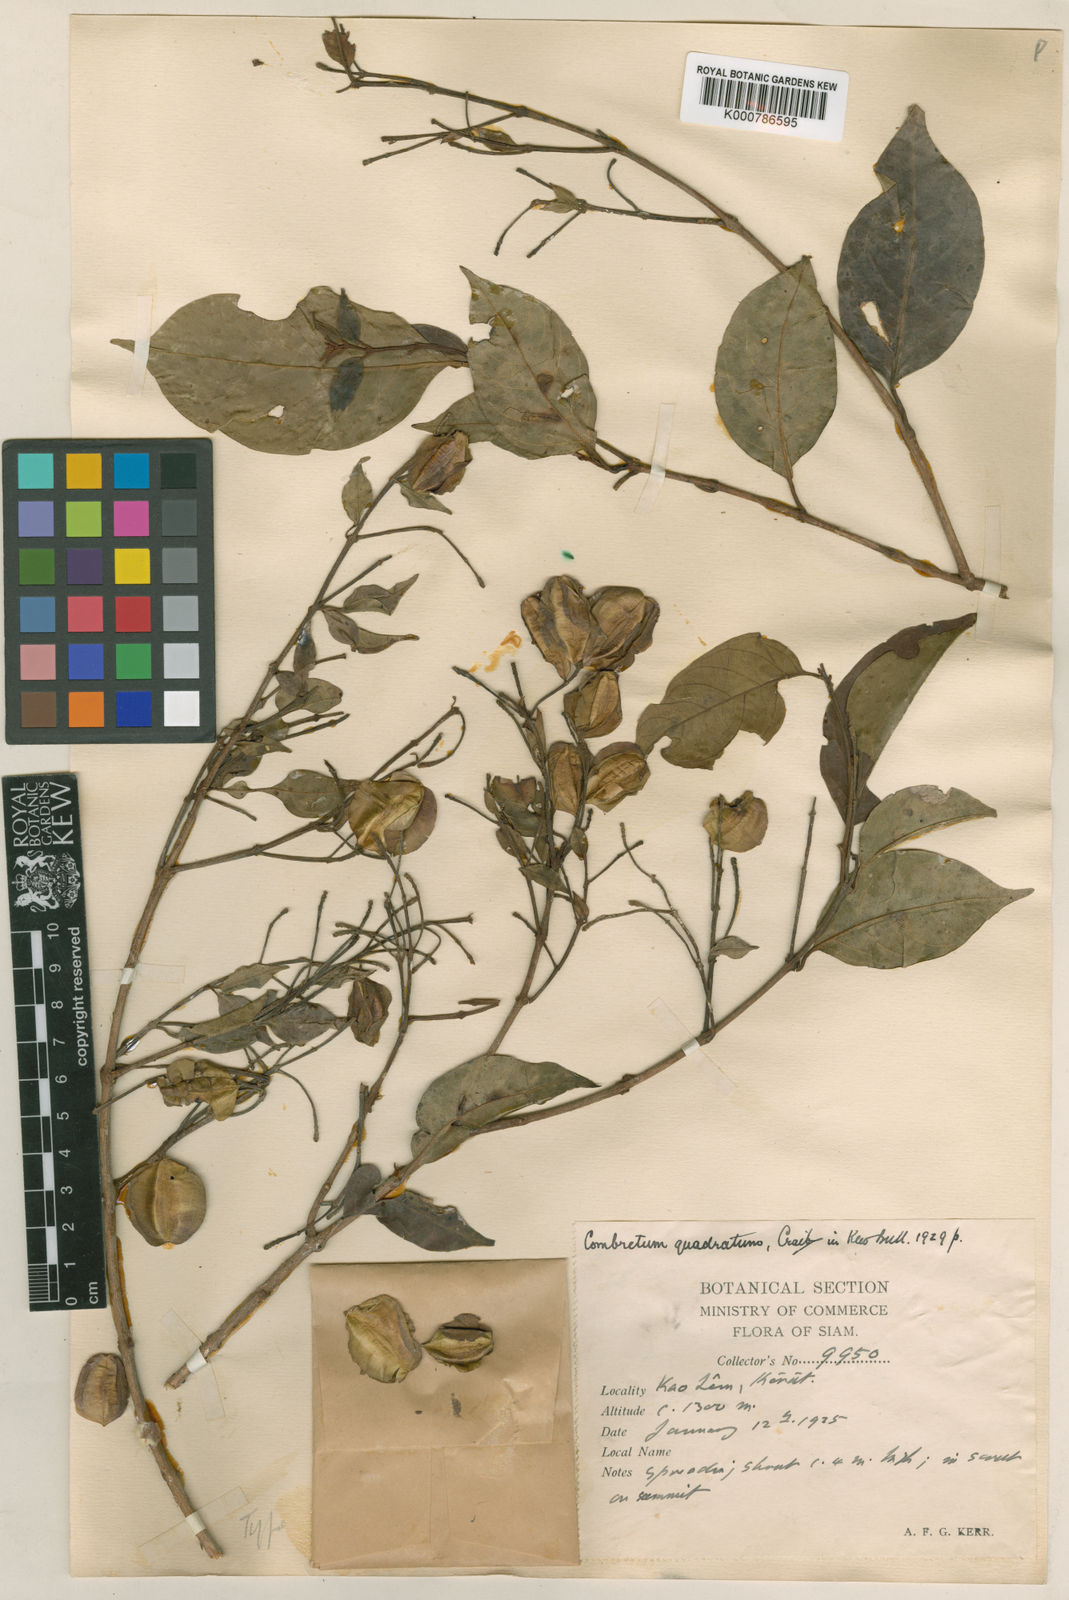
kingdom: Plantae
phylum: Tracheophyta
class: Magnoliopsida
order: Myrtales
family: Combretaceae
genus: Combretum
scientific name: Combretum quadrangulare
